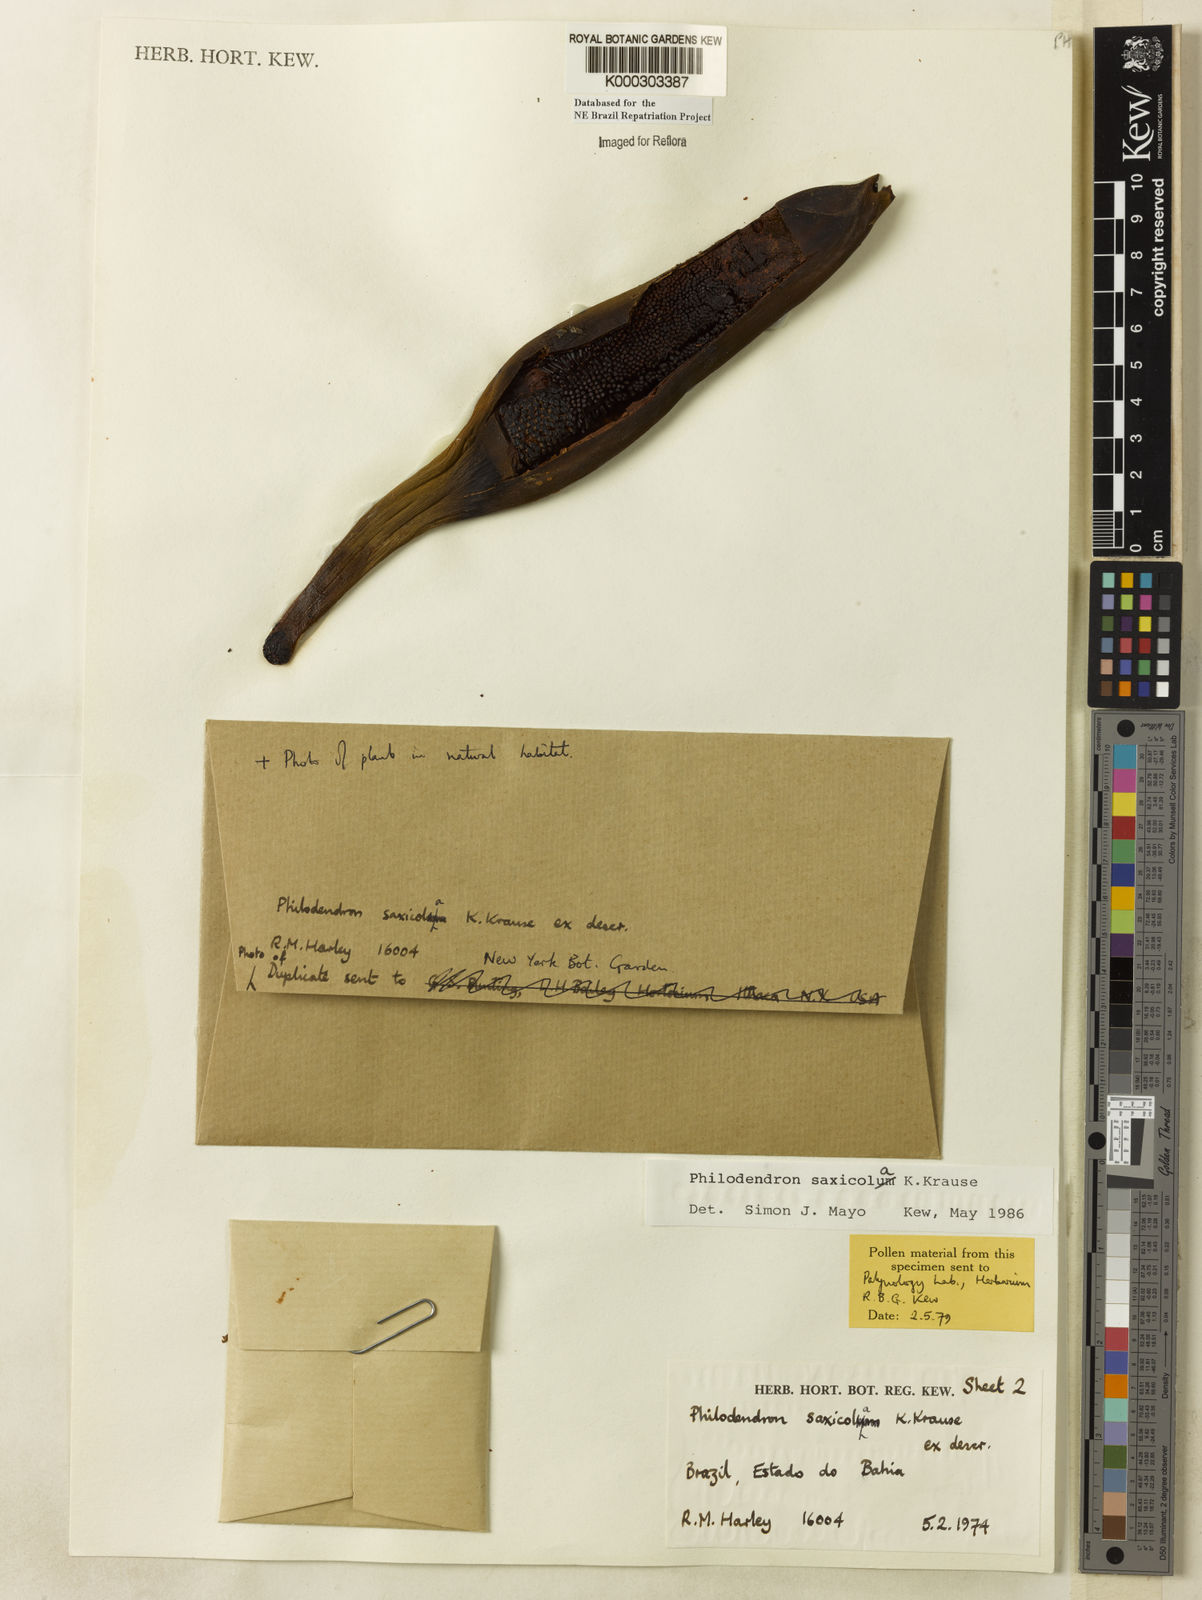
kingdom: Plantae
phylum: Tracheophyta
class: Liliopsida
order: Alismatales
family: Araceae
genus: Thaumatophyllum
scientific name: Thaumatophyllum saxicola
